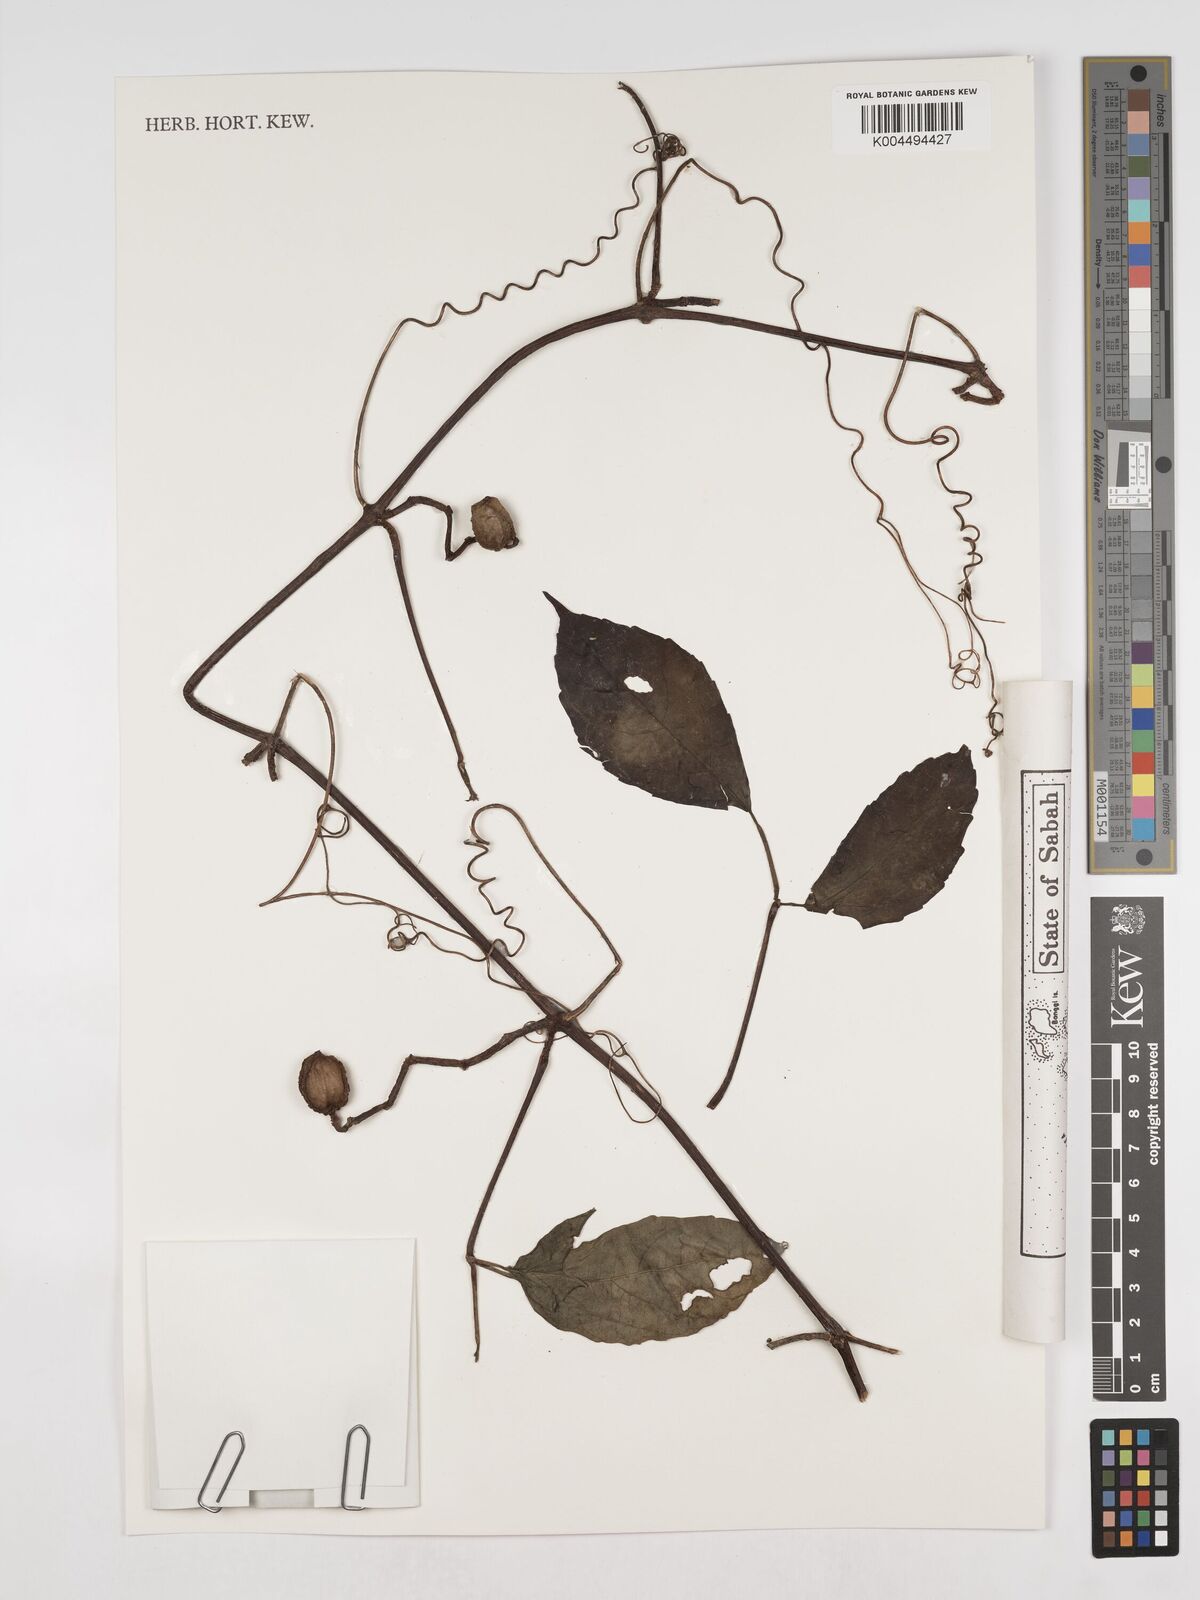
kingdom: Plantae
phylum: Tracheophyta
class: Magnoliopsida
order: Vitales
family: Vitaceae
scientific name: Vitaceae
